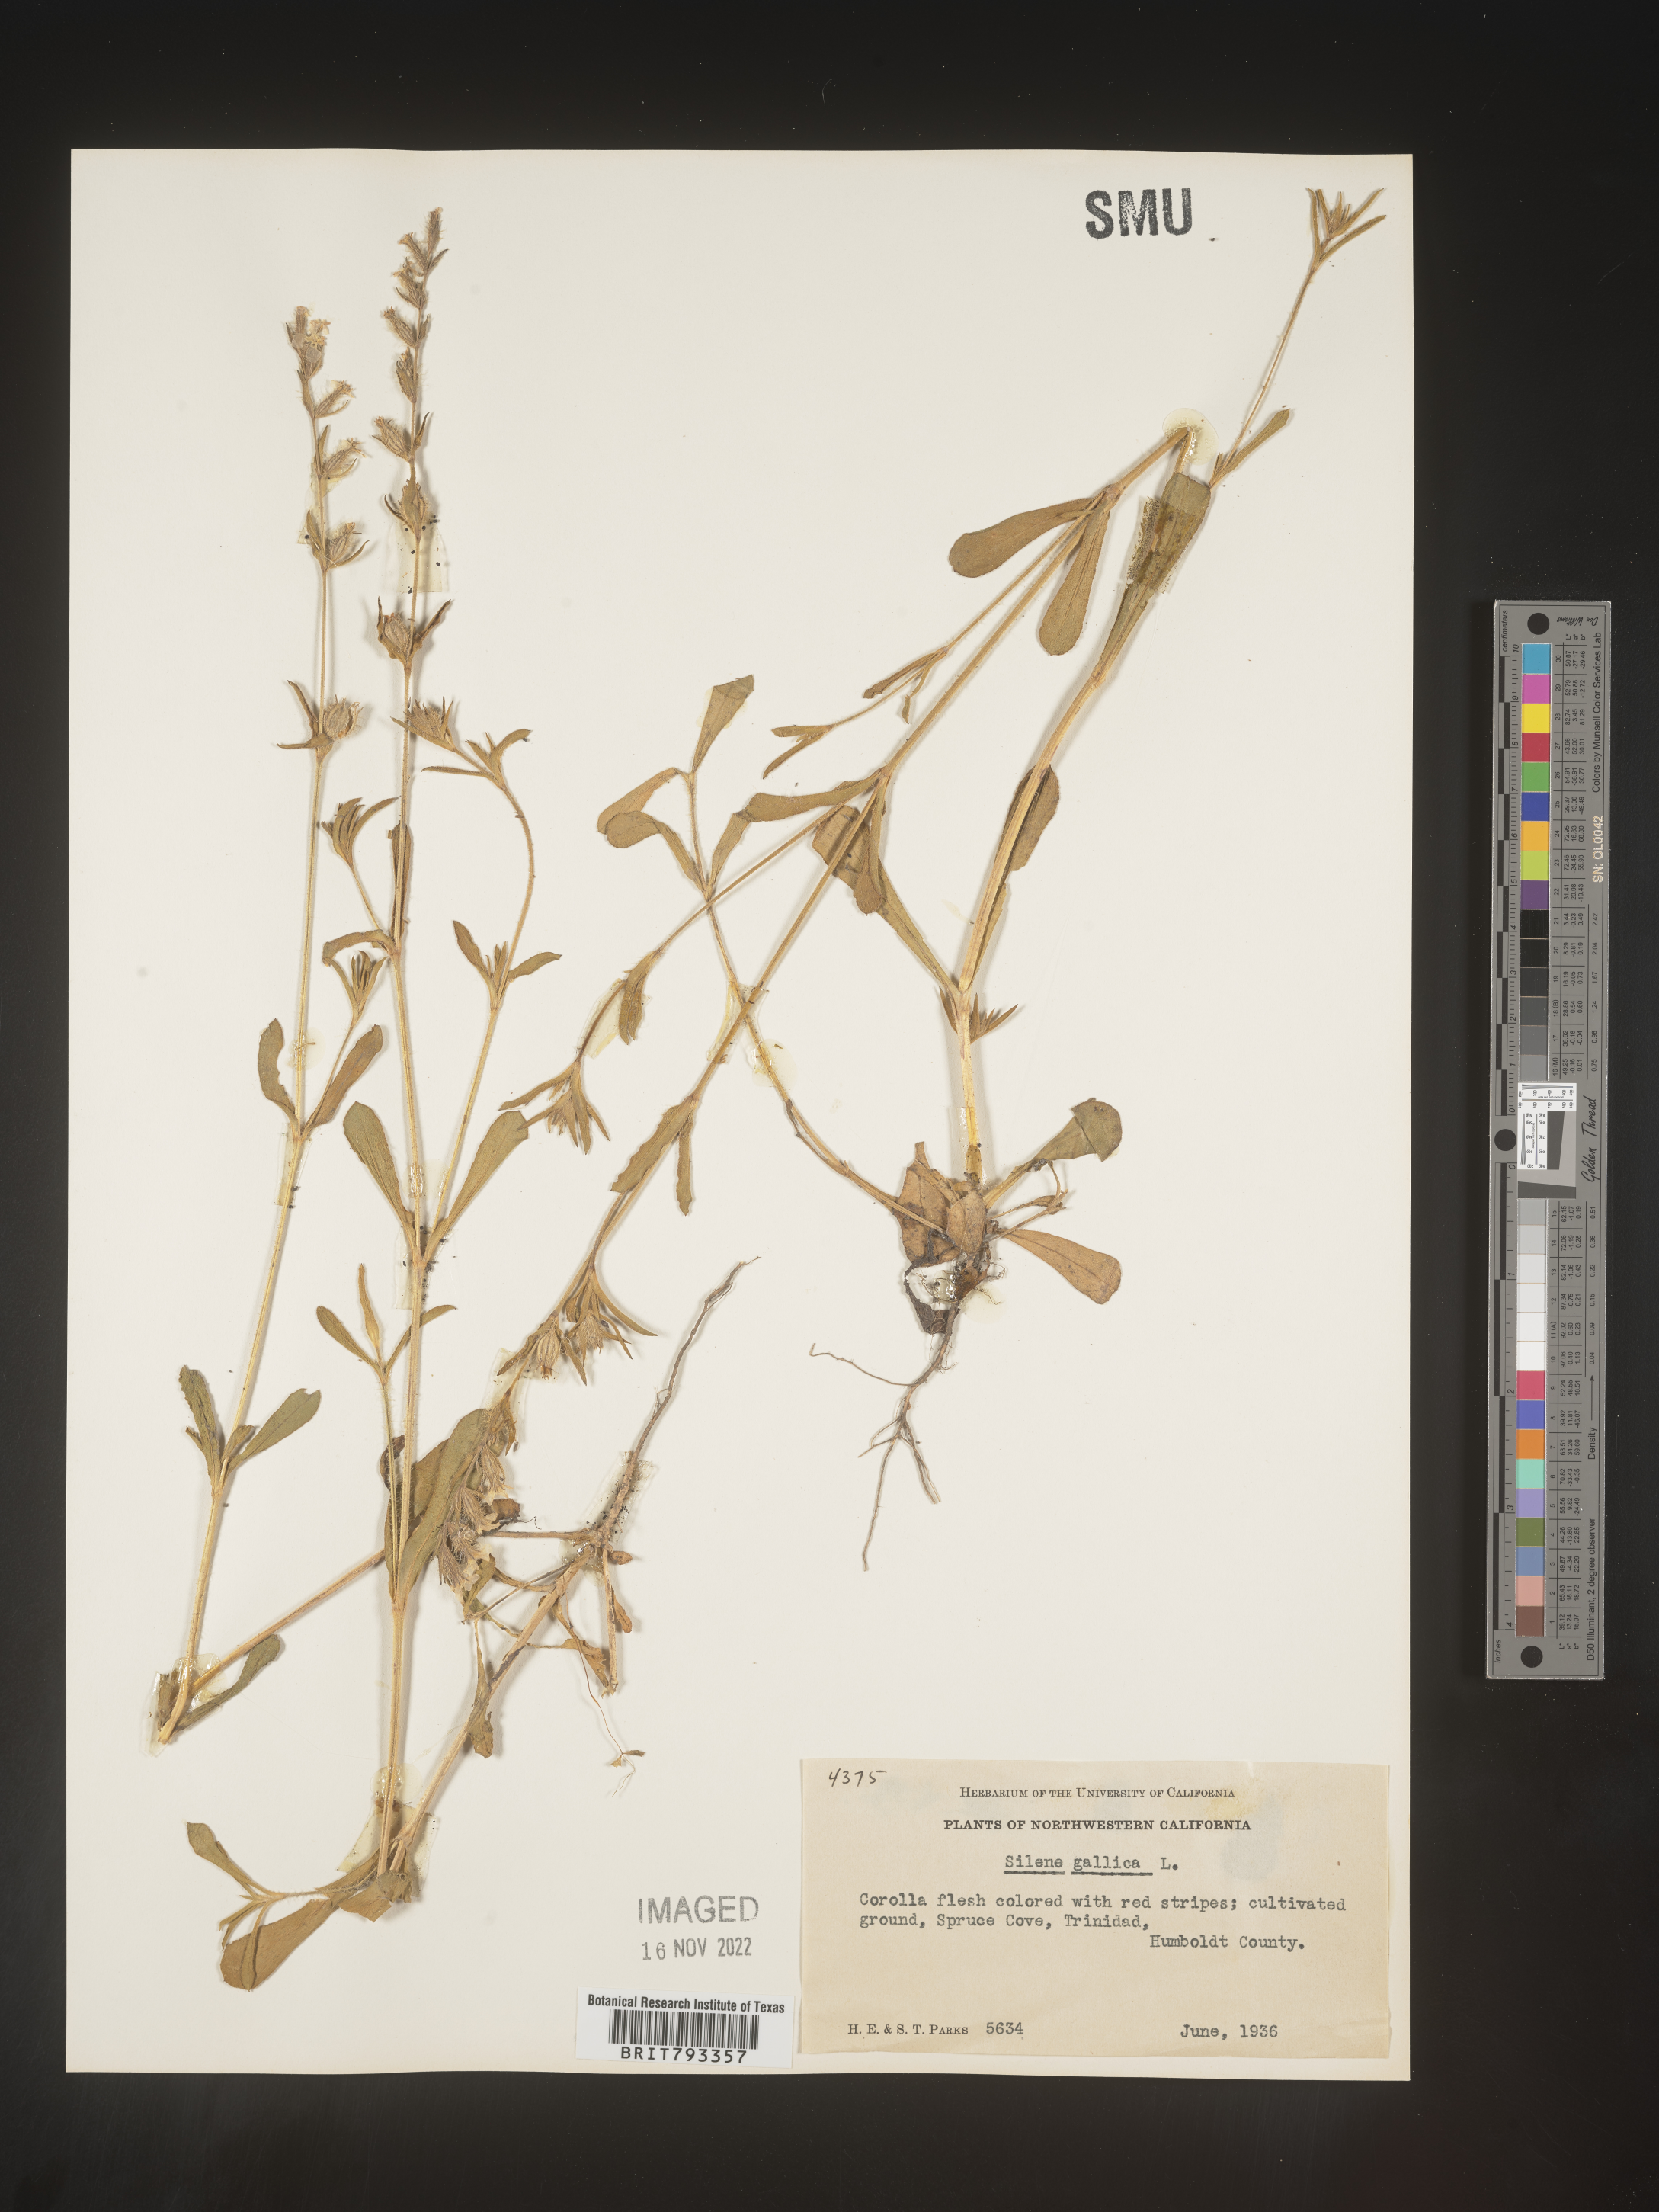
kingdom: Plantae
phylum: Tracheophyta
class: Magnoliopsida
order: Caryophyllales
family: Caryophyllaceae
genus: Silene
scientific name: Silene gallica
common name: Small-flowered catchfly
